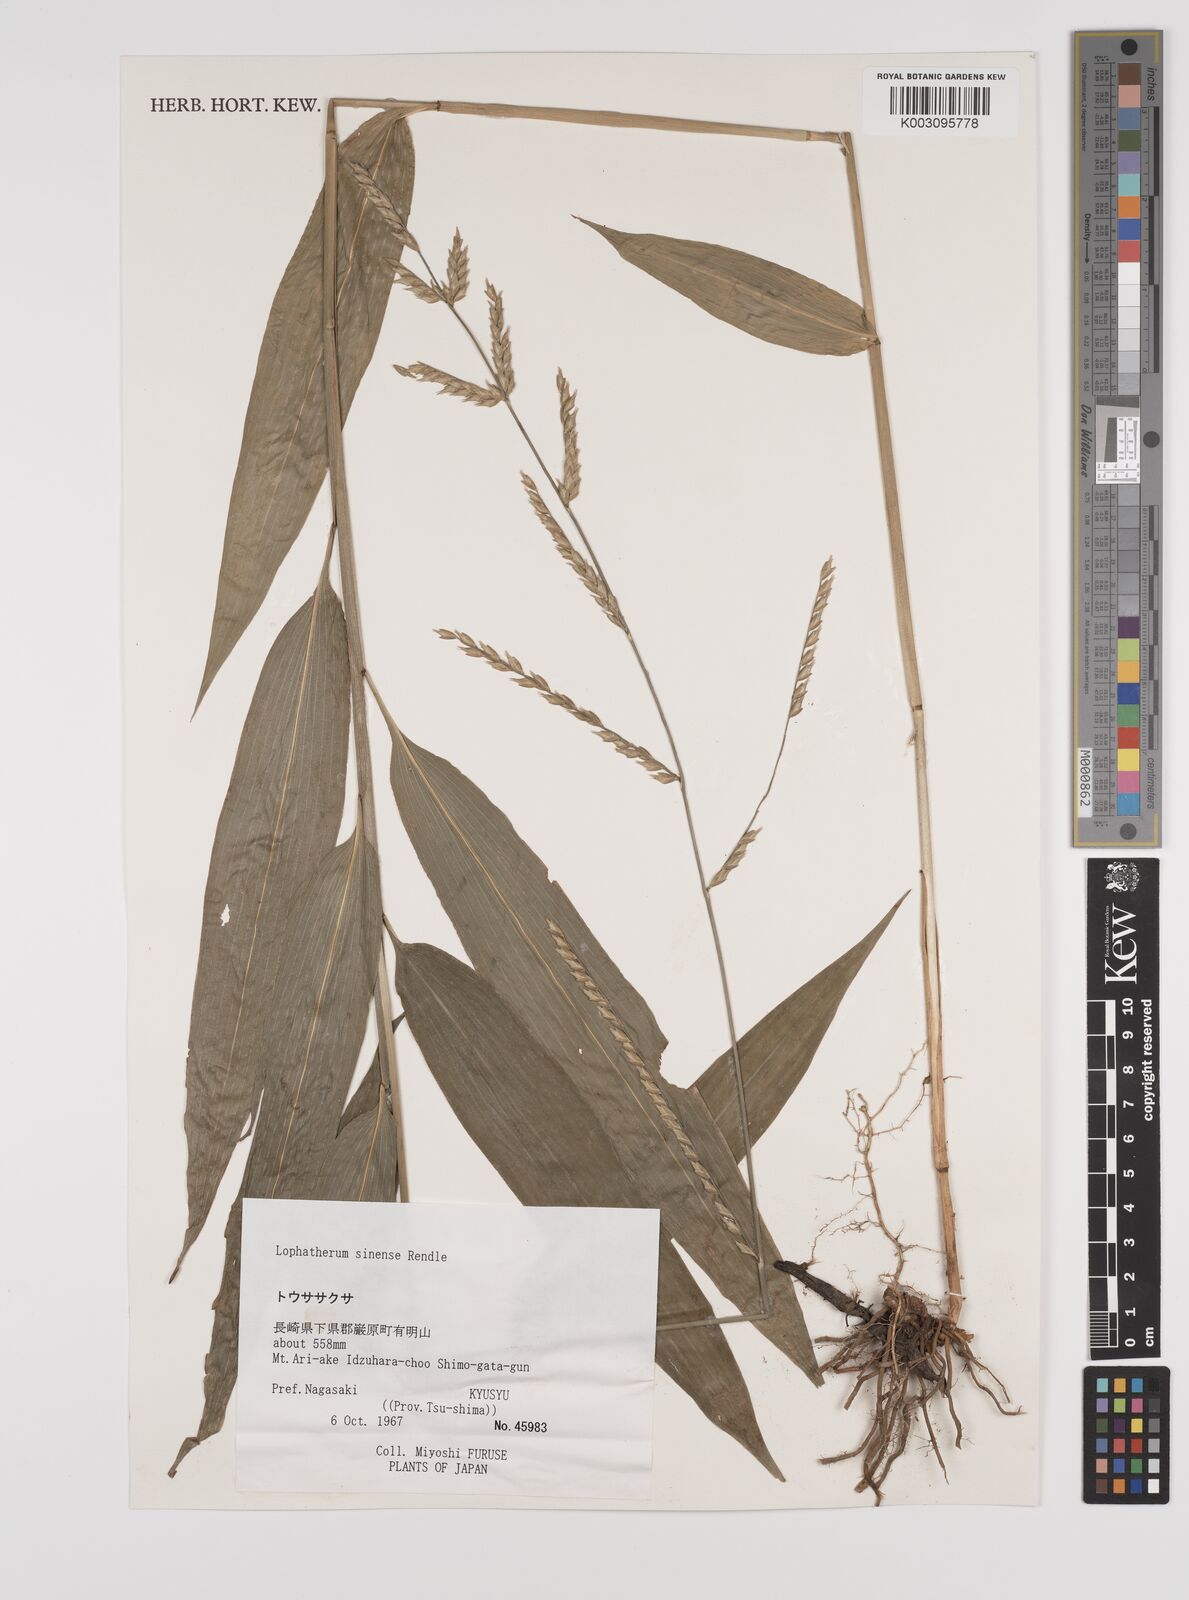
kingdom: Plantae
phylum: Tracheophyta
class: Liliopsida
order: Poales
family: Poaceae
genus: Lophatherum
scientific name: Lophatherum sinense
